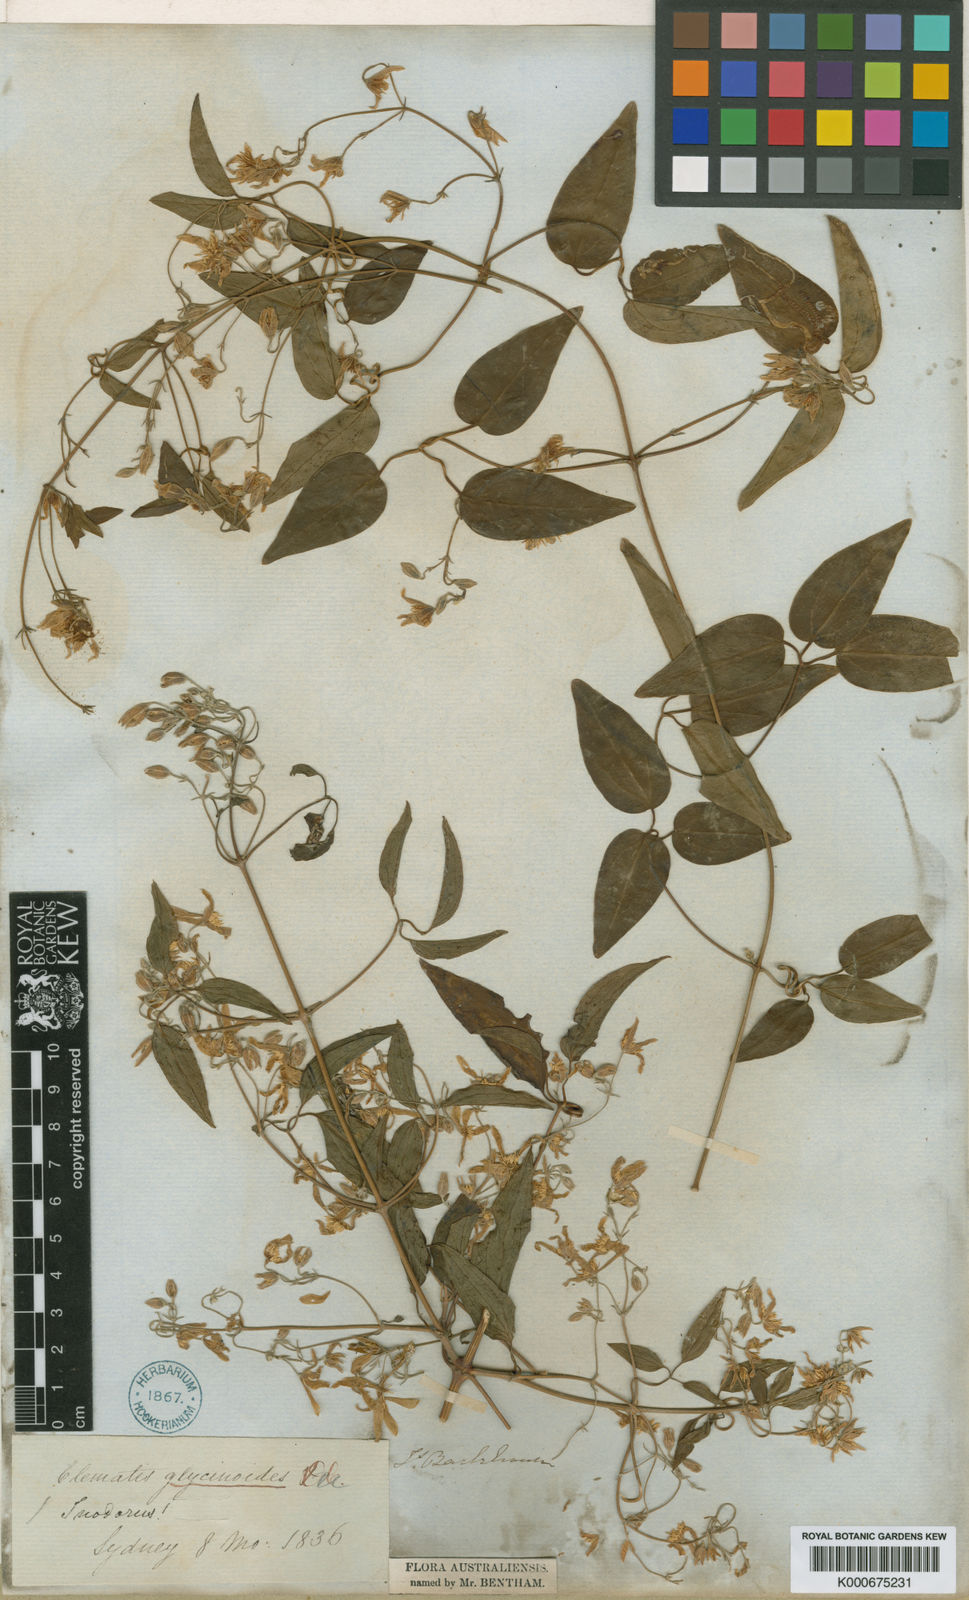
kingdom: Plantae
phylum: Tracheophyta
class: Magnoliopsida
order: Ranunculales
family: Ranunculaceae
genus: Clematis
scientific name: Clematis glycinoides
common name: Forest clematis
